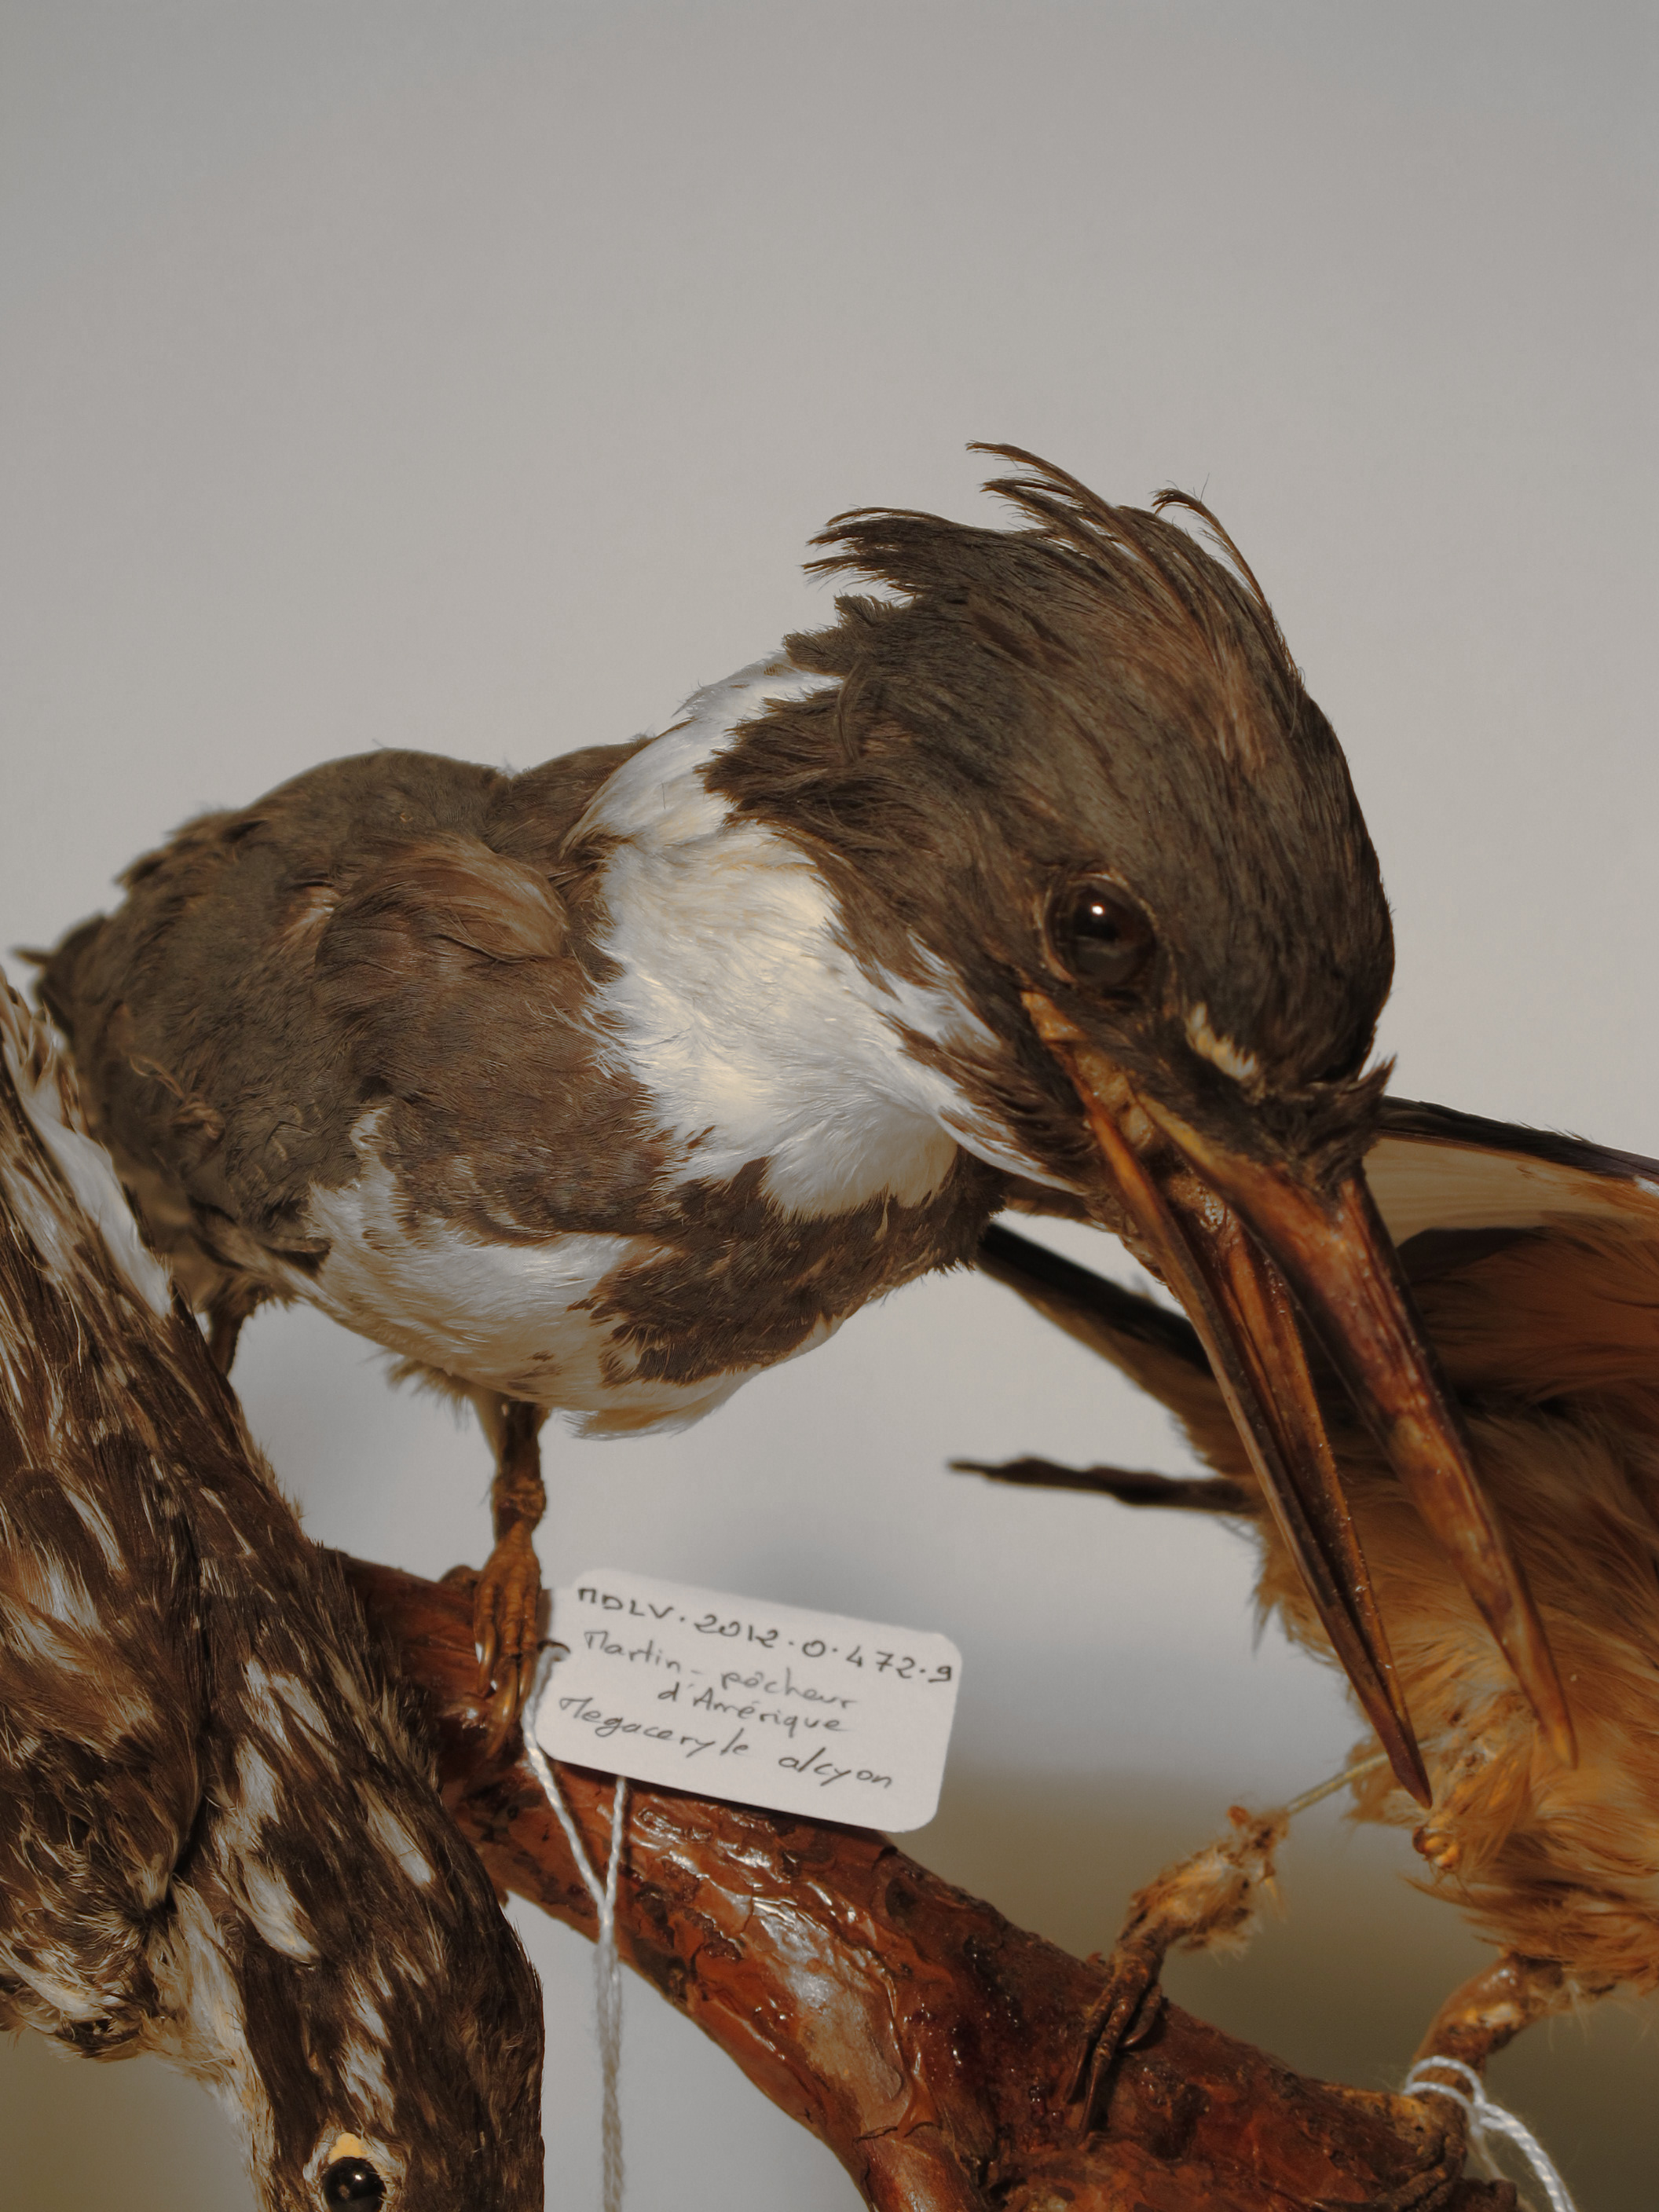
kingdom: Animalia
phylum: Chordata
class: Aves
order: Coraciiformes
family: Alcedinidae
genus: Megaceryle
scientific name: Megaceryle alcyon
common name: Belted Kingfisher
